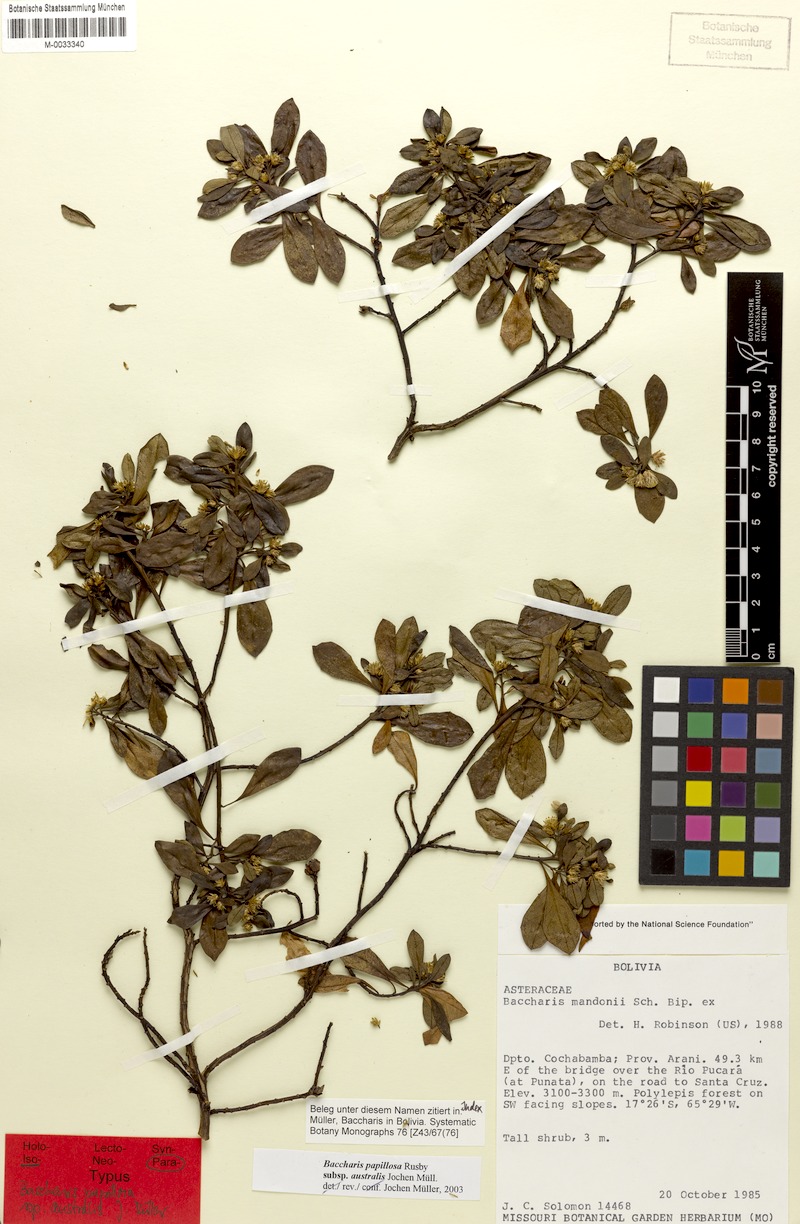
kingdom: Plantae
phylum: Tracheophyta
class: Magnoliopsida
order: Asterales
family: Asteraceae
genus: Baccharis
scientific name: Baccharis neoaustralis
